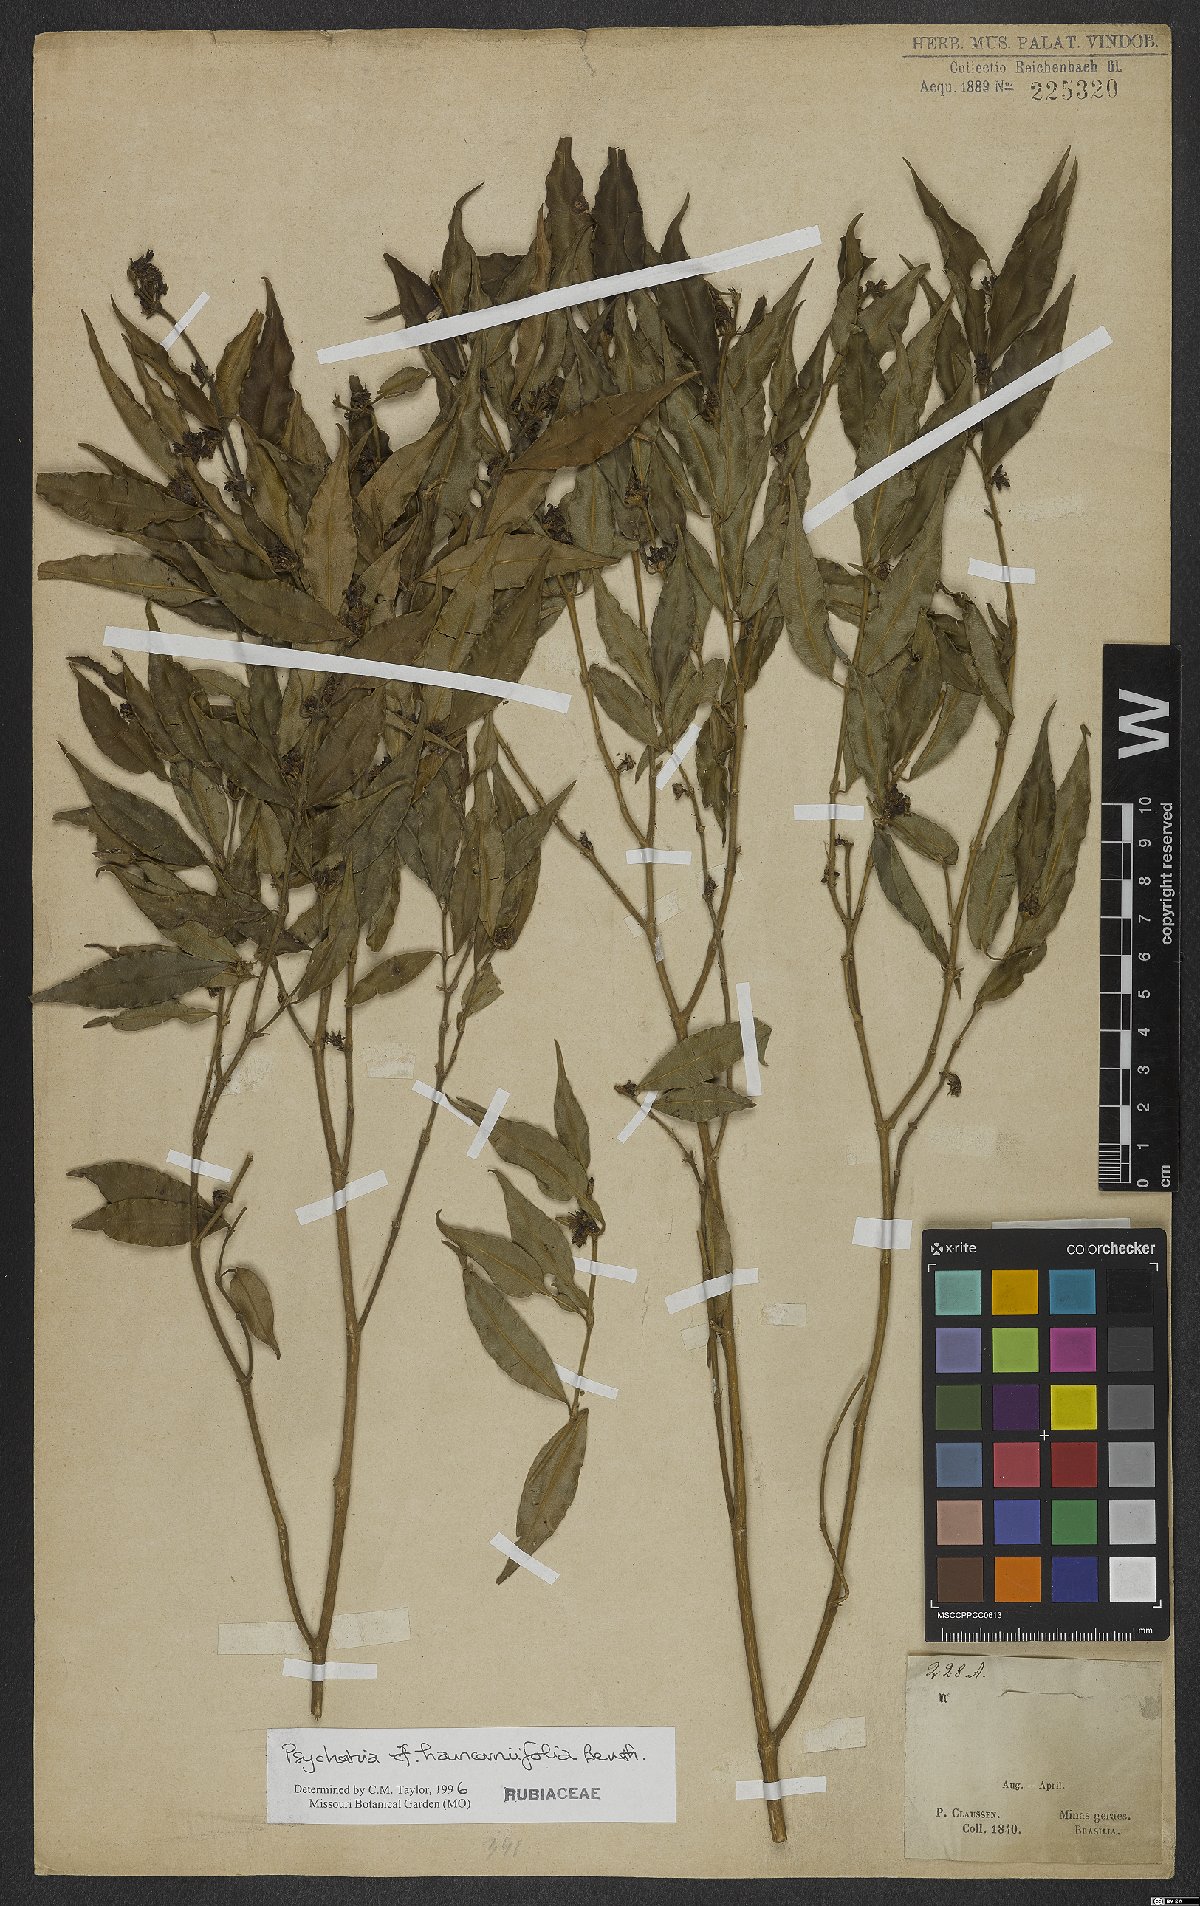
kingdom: Plantae
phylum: Tracheophyta
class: Magnoliopsida
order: Gentianales
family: Rubiaceae
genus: Palicourea
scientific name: Palicourea sessilis
